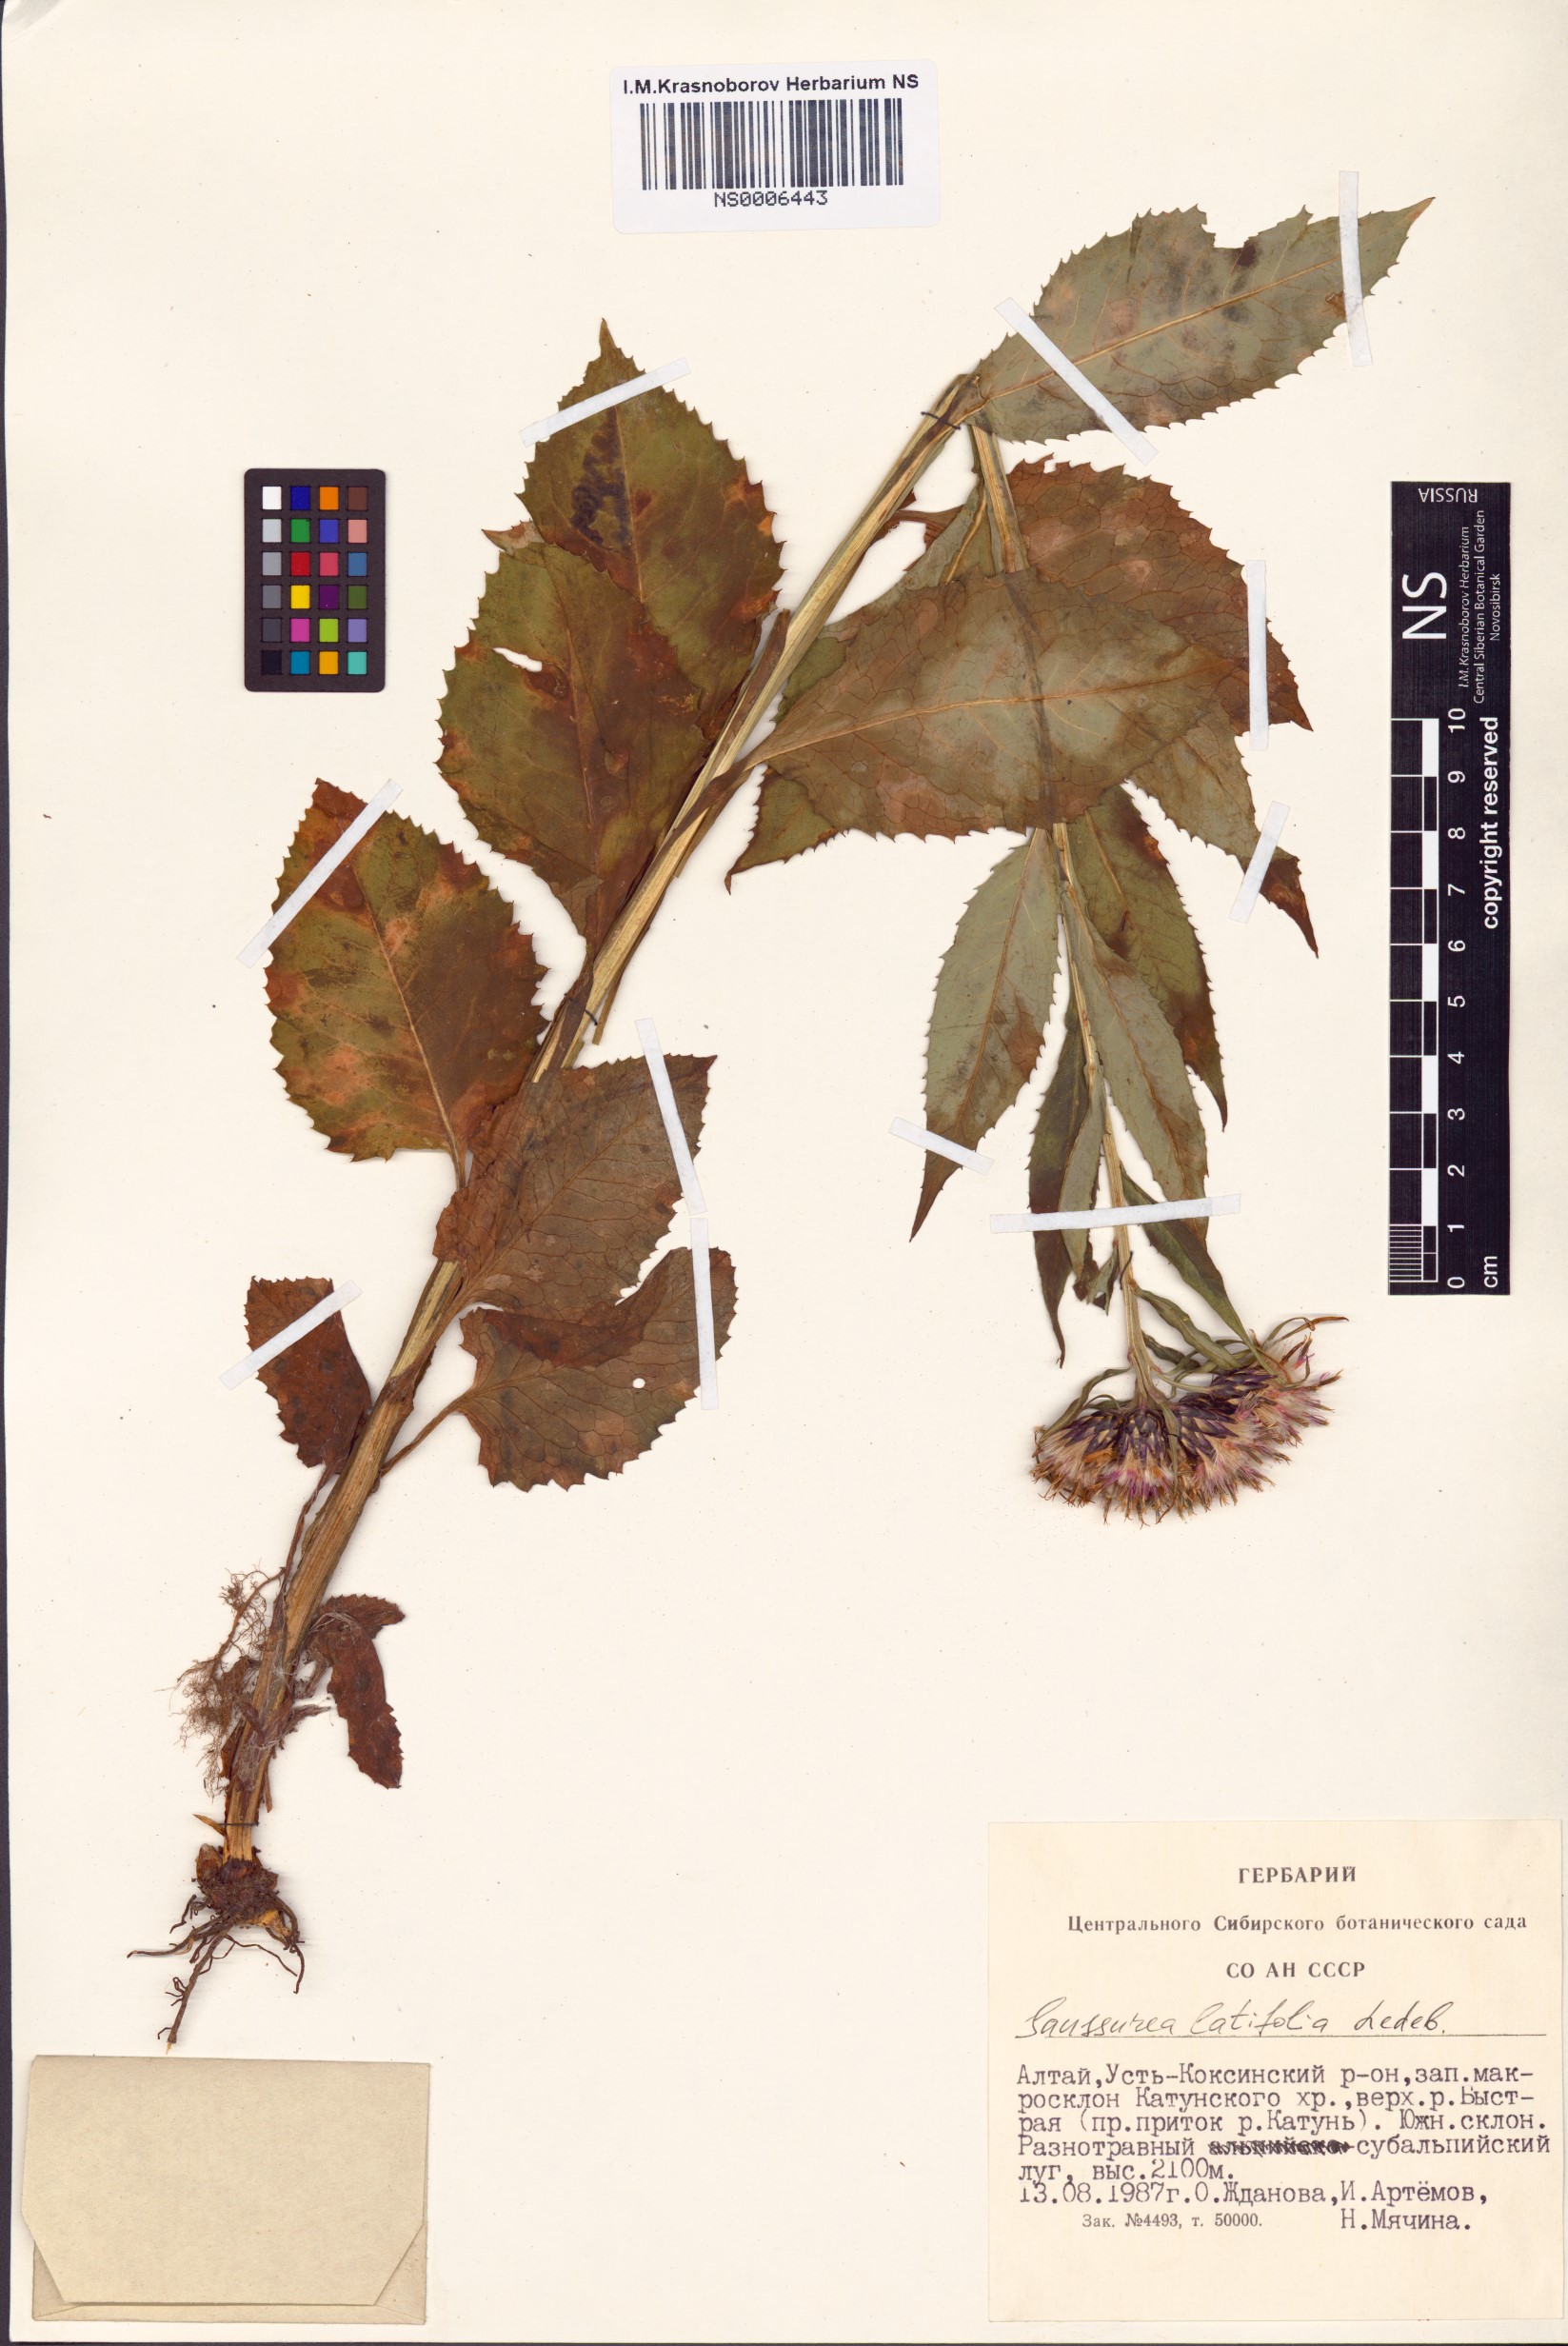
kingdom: Plantae
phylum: Tracheophyta
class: Magnoliopsida
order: Asterales
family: Asteraceae
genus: Saussurea
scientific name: Saussurea latifolia
